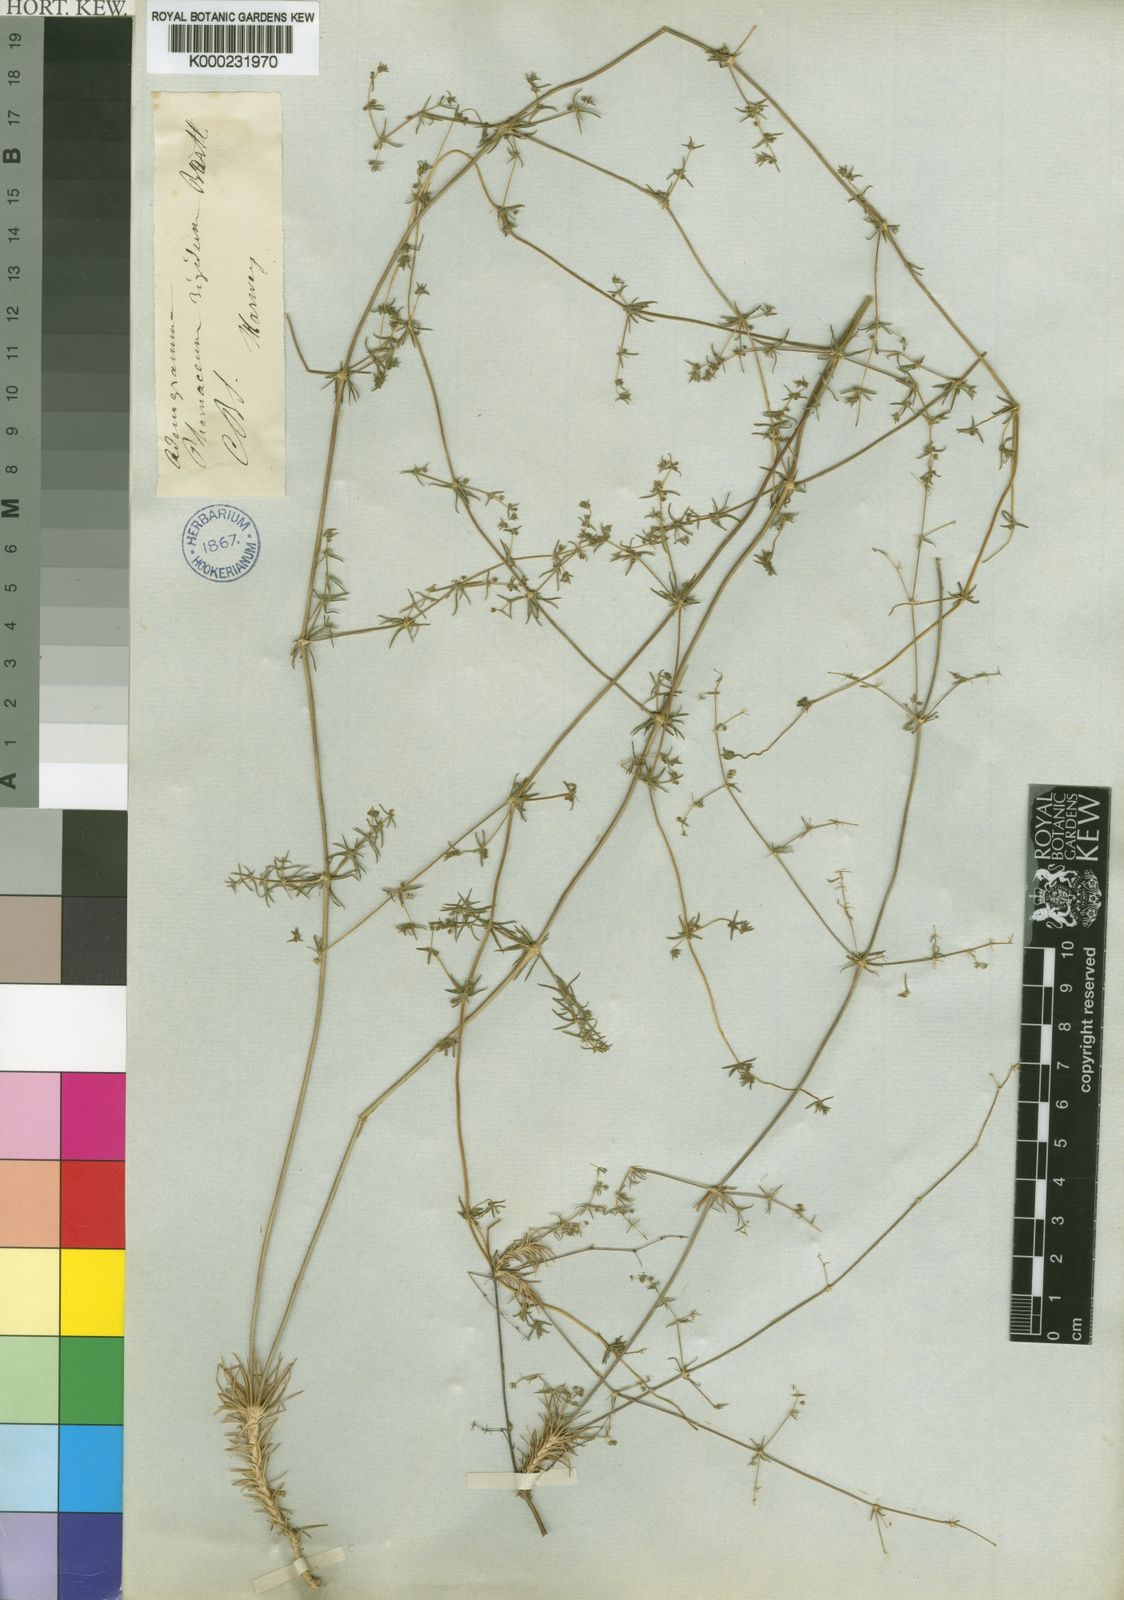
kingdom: Plantae
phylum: Tracheophyta
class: Magnoliopsida
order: Caryophyllales
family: Molluginaceae
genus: Adenogramma
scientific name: Adenogramma rigida
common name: Rigid muggiegrass
